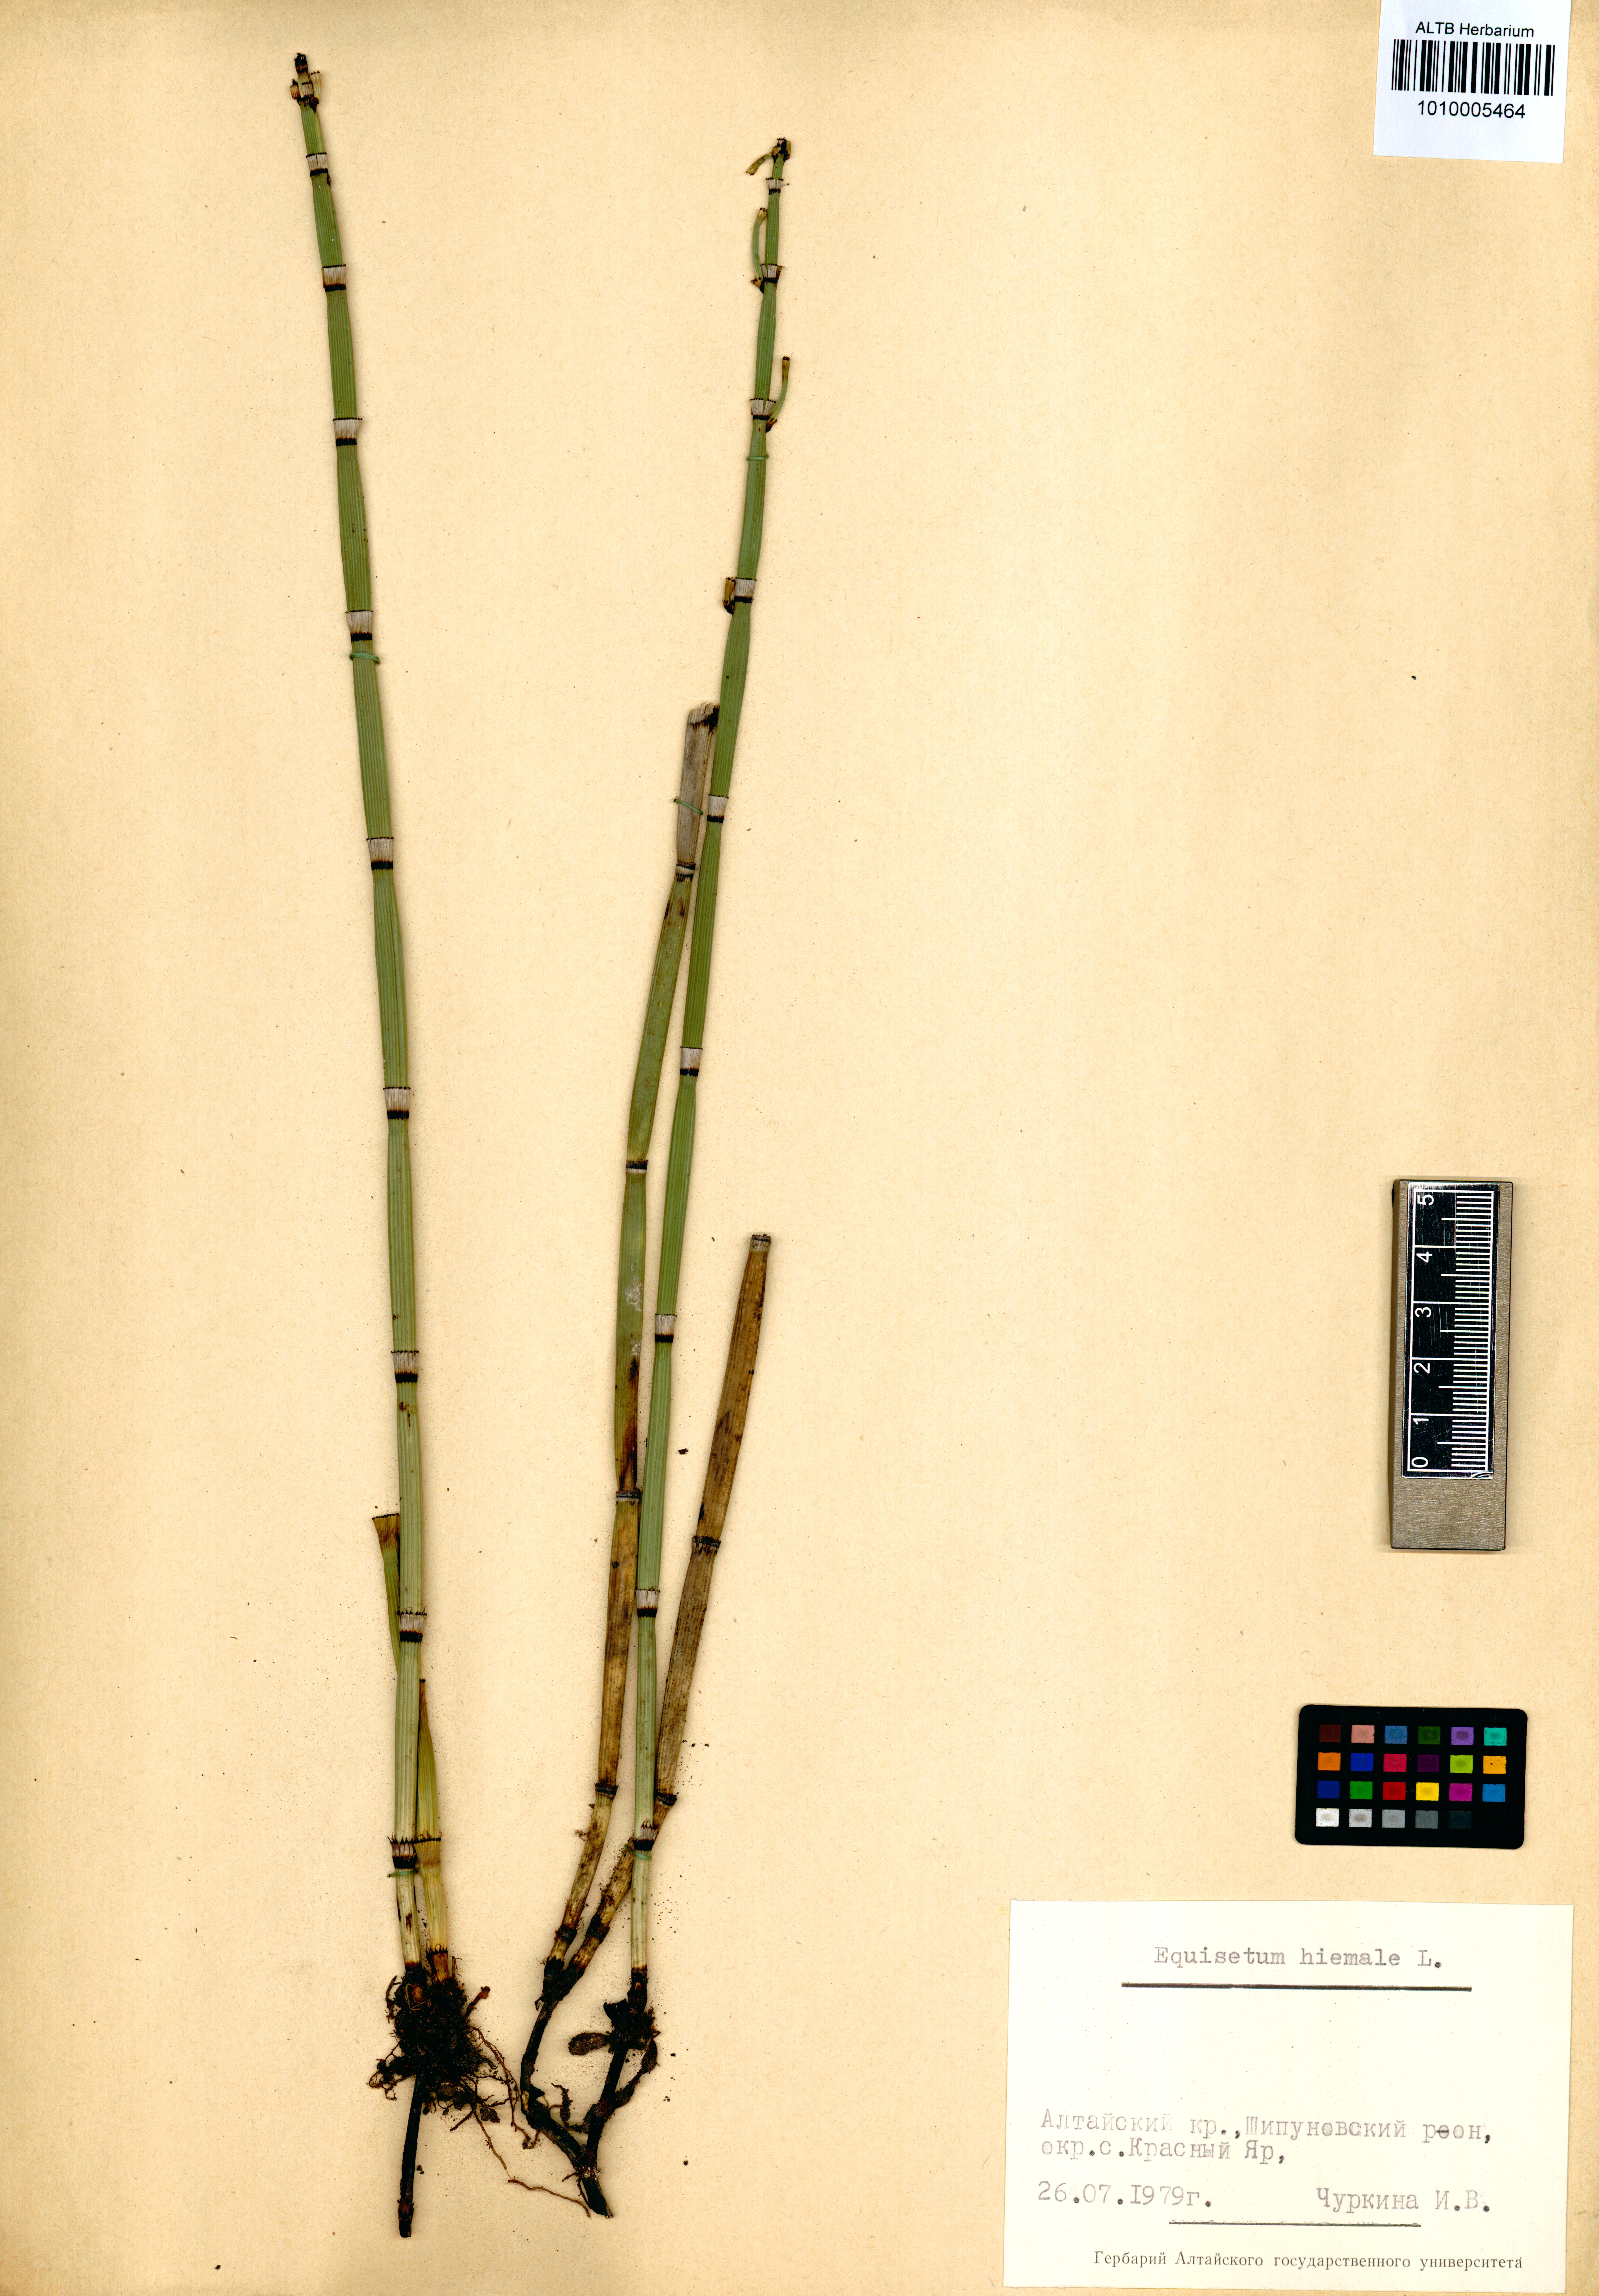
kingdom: Plantae
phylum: Tracheophyta
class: Polypodiopsida
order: Equisetales
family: Equisetaceae
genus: Equisetum
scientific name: Equisetum hyemale
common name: Rough horsetail
